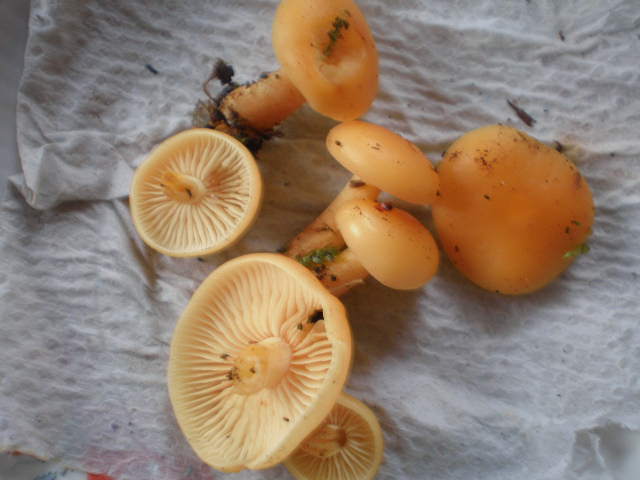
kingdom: Fungi
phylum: Basidiomycota
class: Agaricomycetes
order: Agaricales
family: Physalacriaceae
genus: Flammulina
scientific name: Flammulina velutipes
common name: gul fløjlsfod
